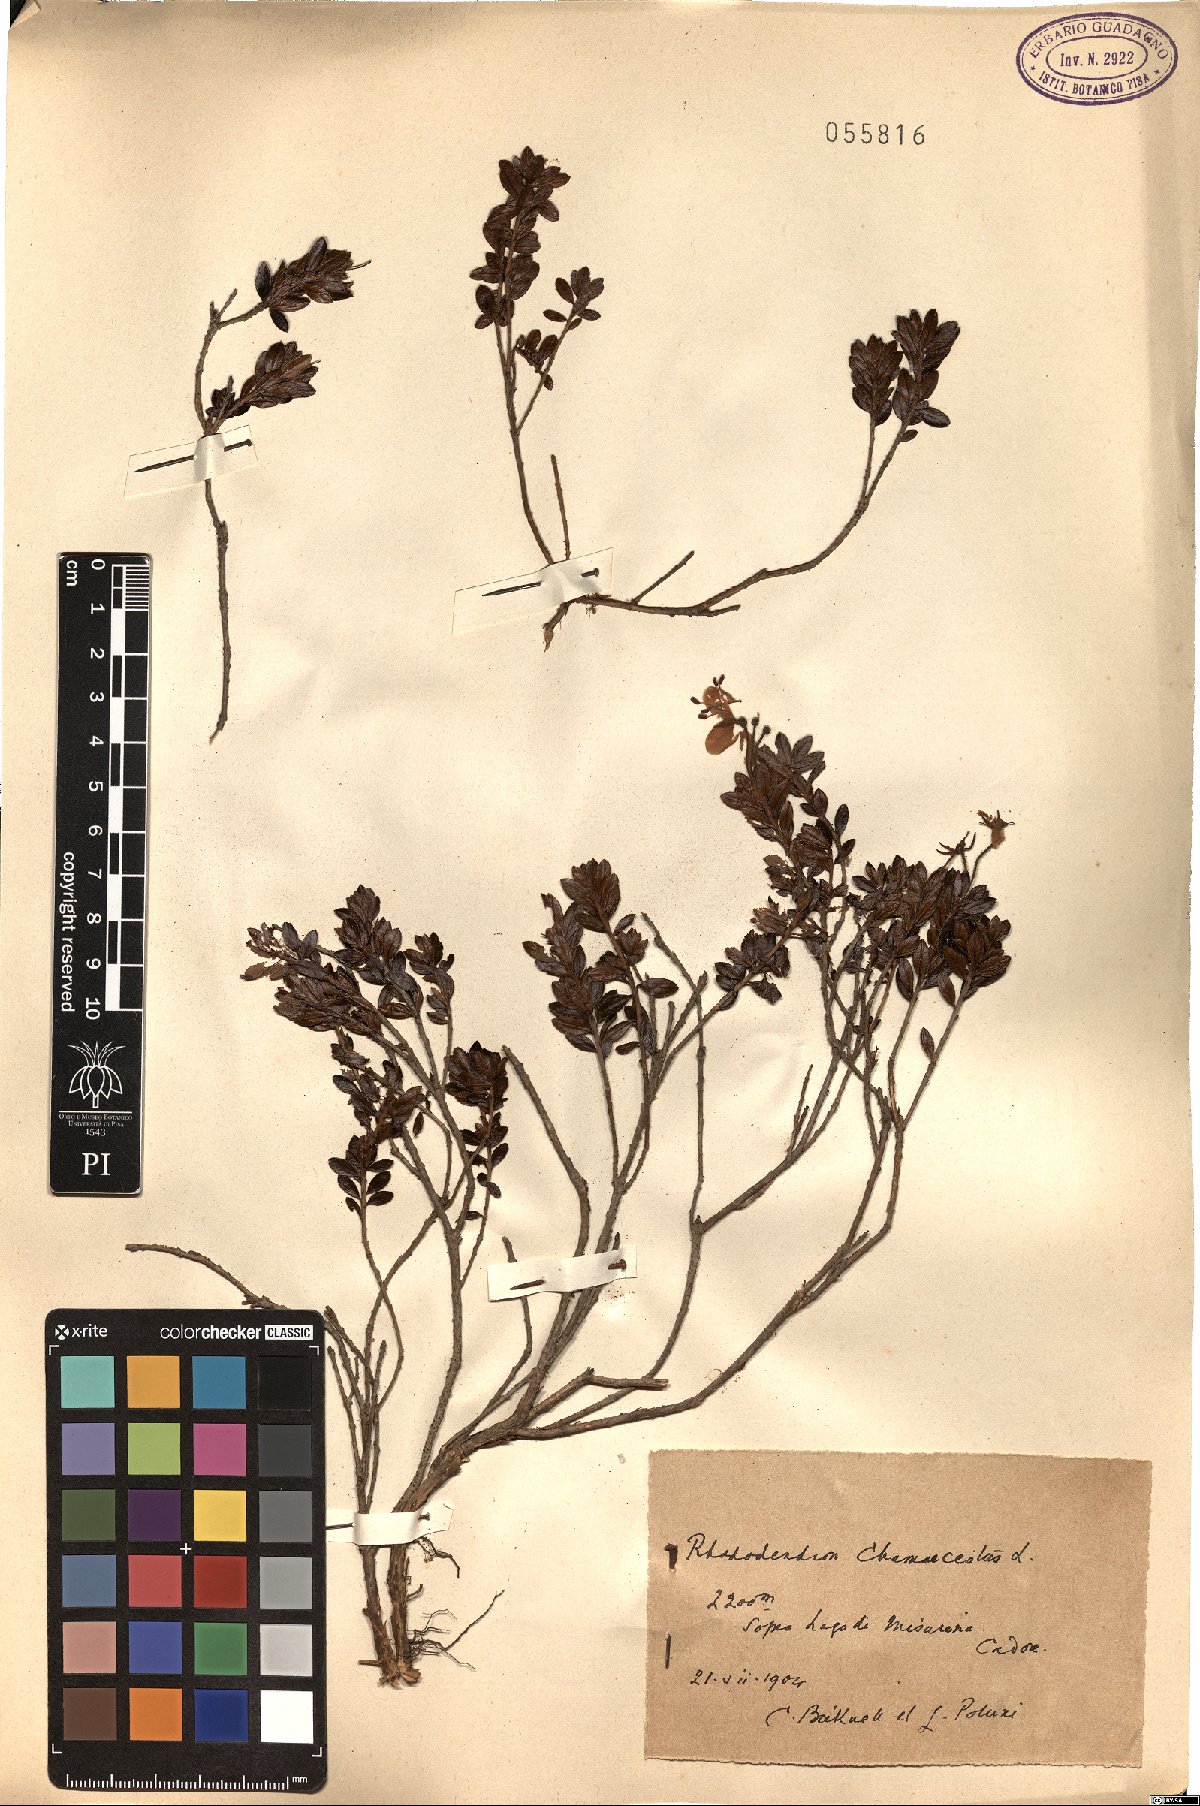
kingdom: Plantae
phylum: Tracheophyta
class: Magnoliopsida
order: Ericales
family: Ericaceae
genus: Rhododendron
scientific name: Rhododendron redowskianum
